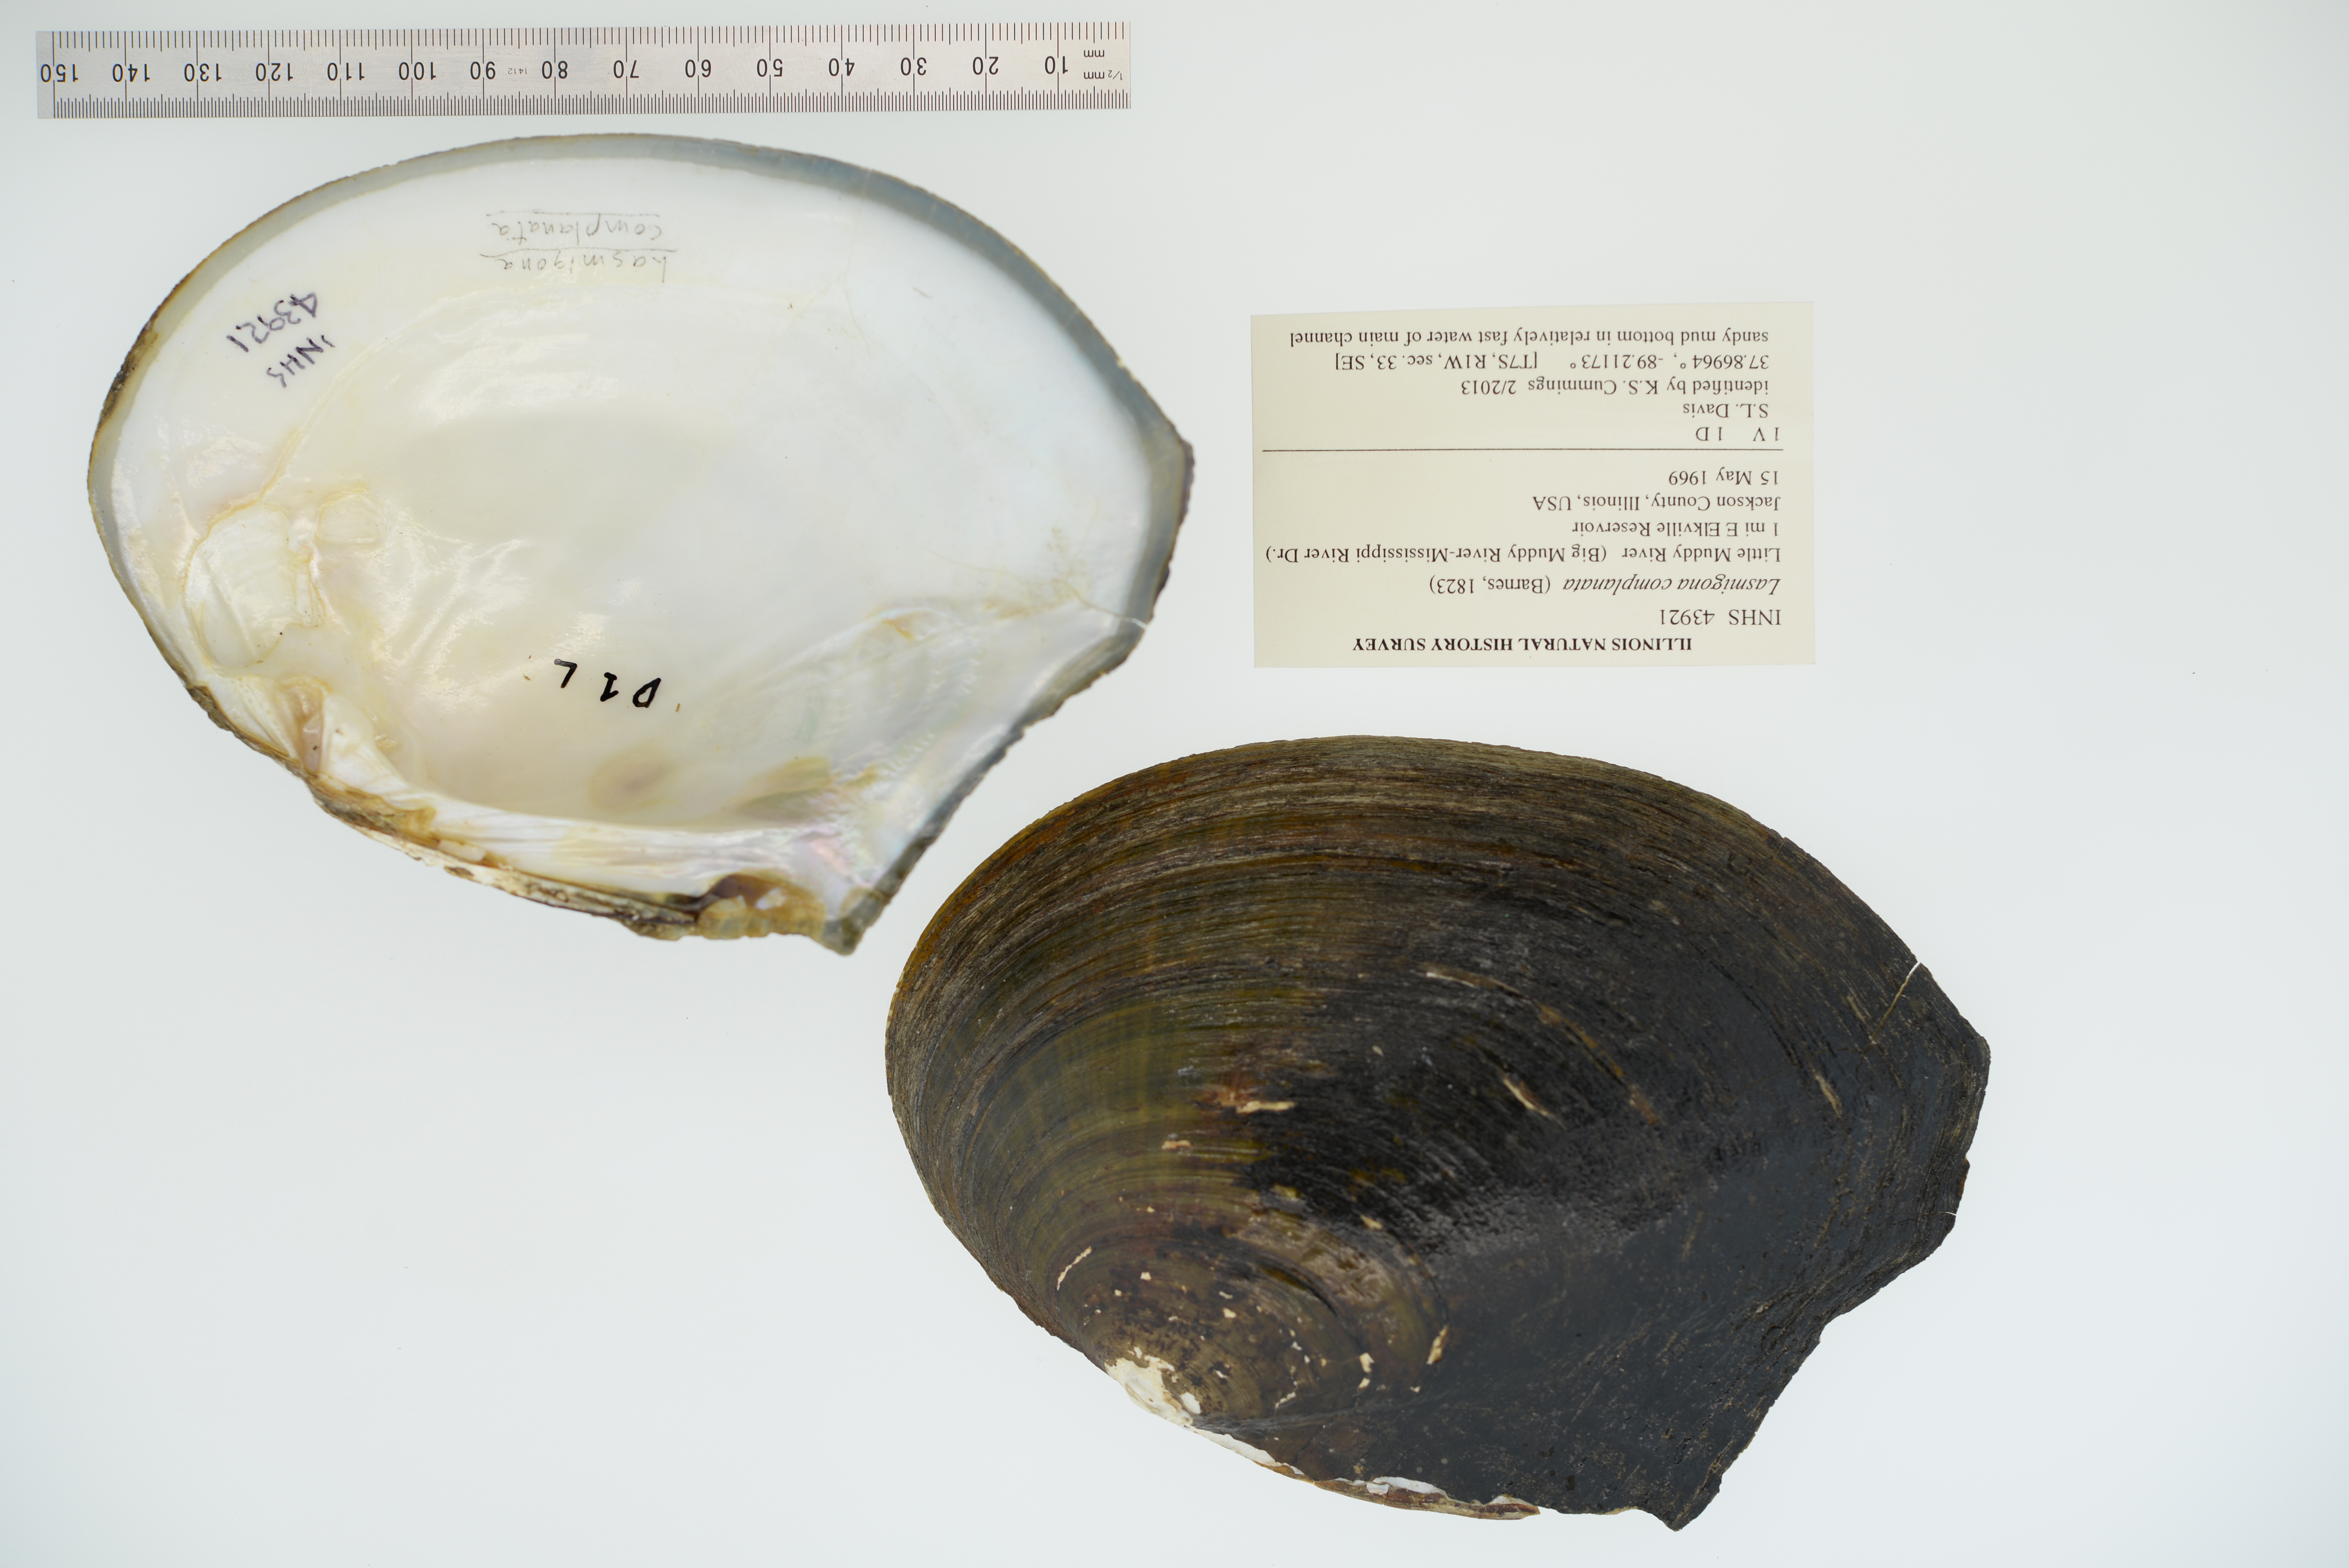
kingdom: Animalia
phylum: Mollusca
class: Bivalvia
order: Unionida
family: Unionidae
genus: Lasmigona
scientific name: Lasmigona complanata
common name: White heelsplitter
